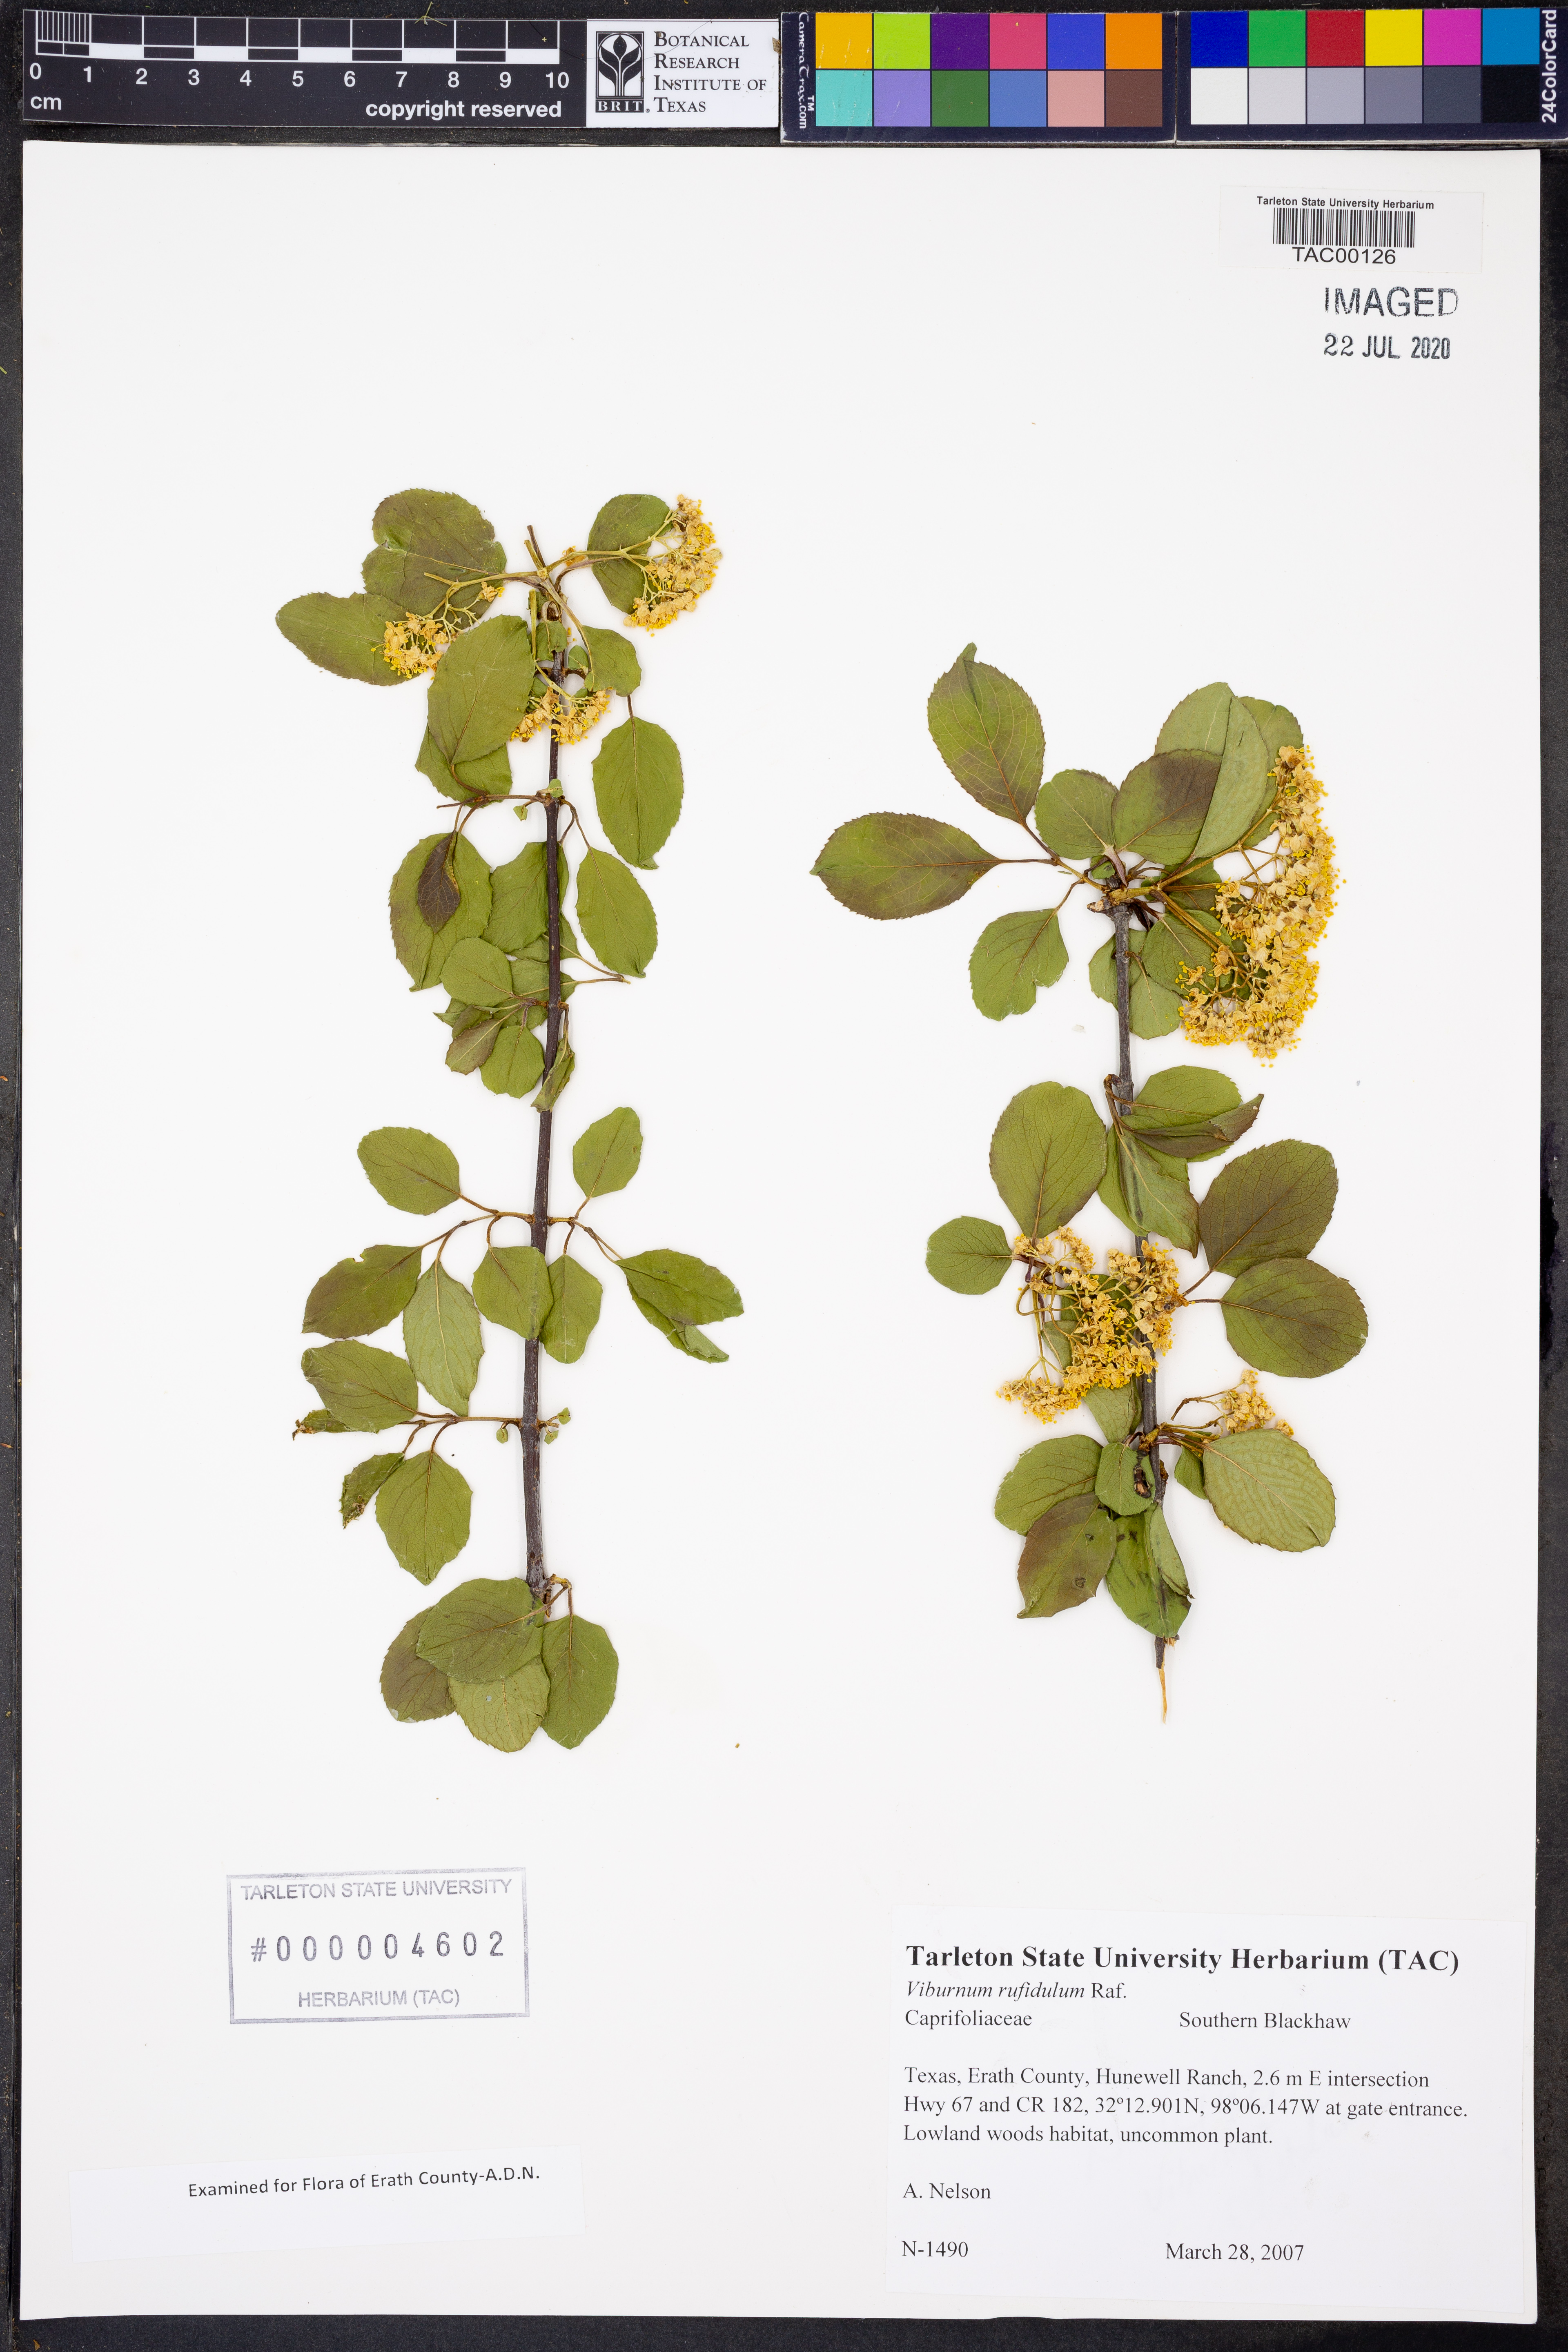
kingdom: Plantae
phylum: Tracheophyta
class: Magnoliopsida
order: Dipsacales
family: Viburnaceae
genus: Viburnum
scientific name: Viburnum rufidulum
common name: Blue haw
